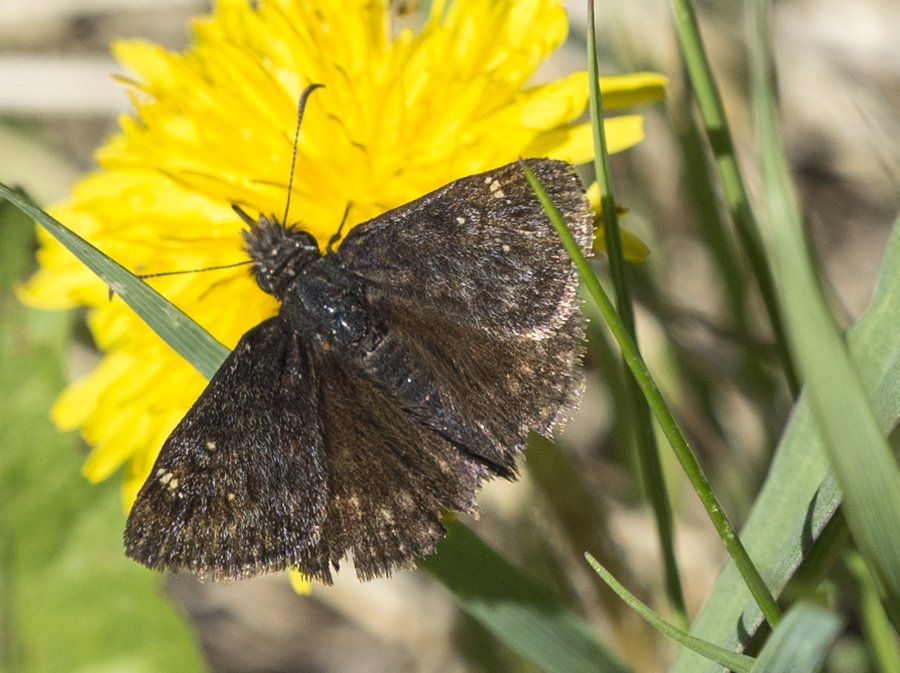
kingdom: Animalia
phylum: Arthropoda
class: Insecta
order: Lepidoptera
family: Hesperiidae
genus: Gesta
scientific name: Gesta
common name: Persius Duskywing
